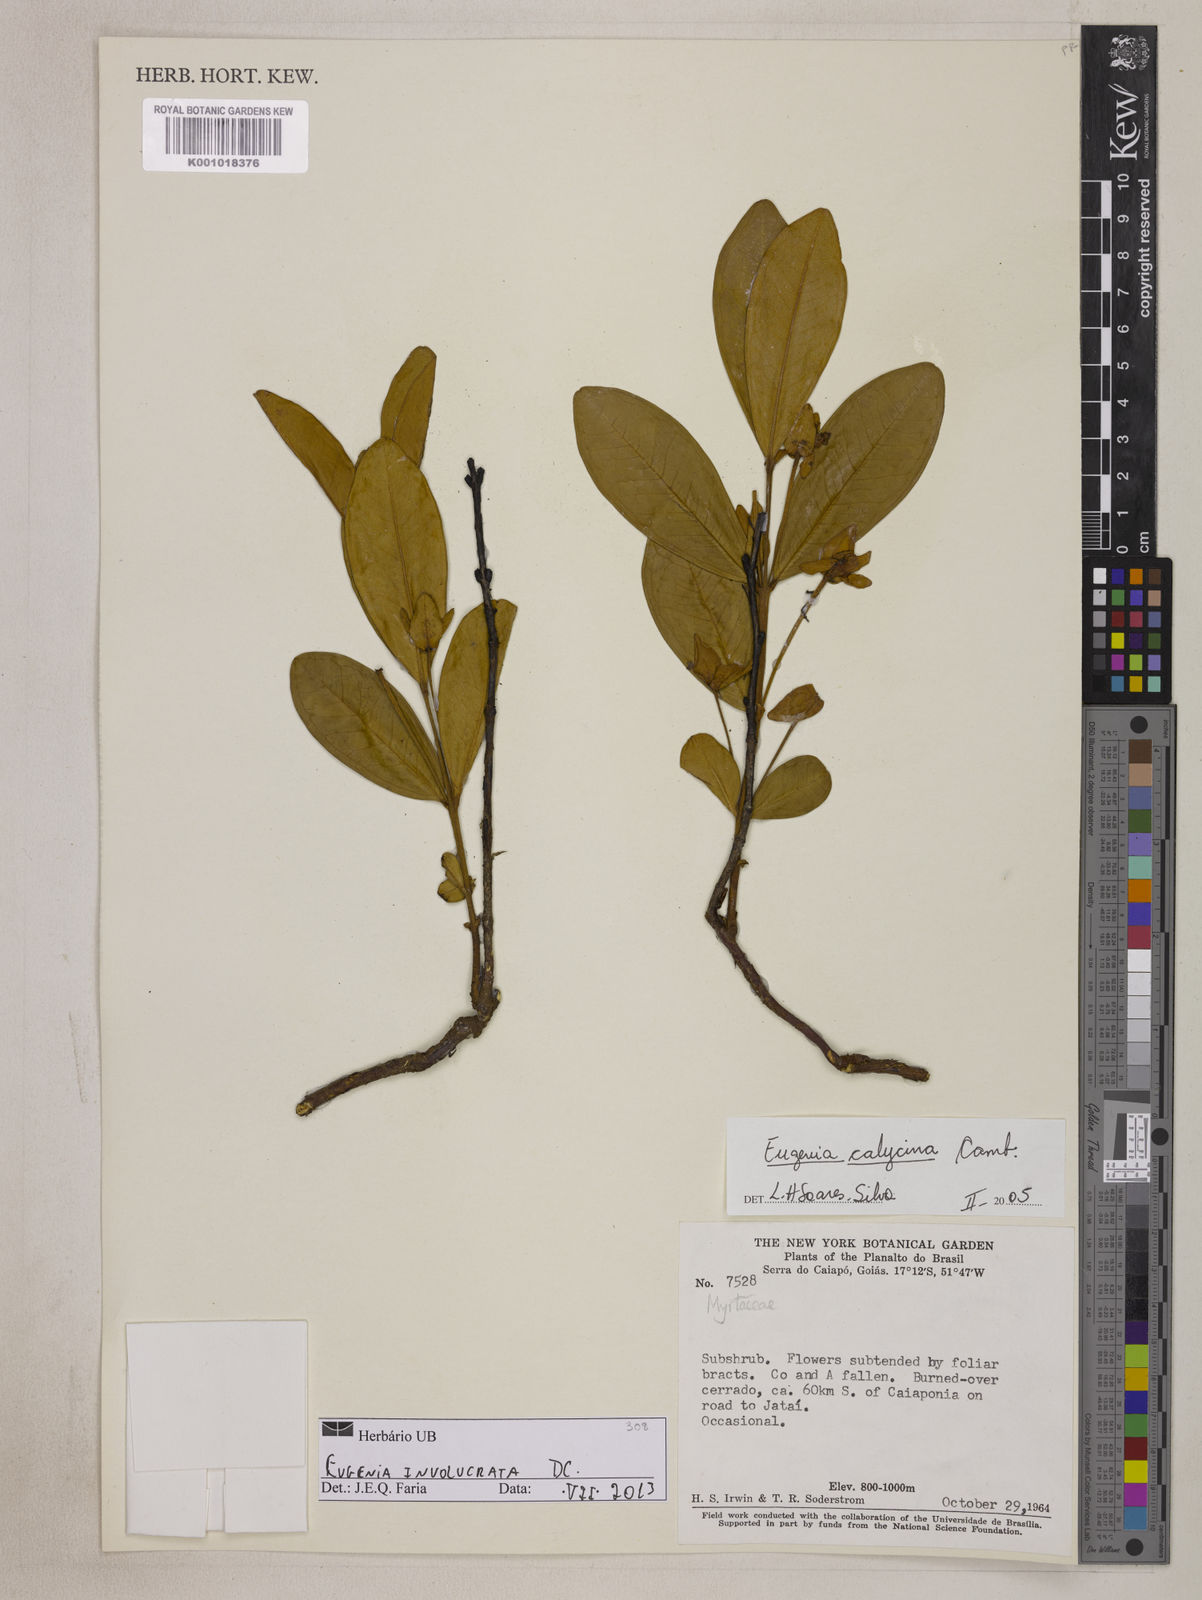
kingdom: Plantae
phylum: Tracheophyta
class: Magnoliopsida
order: Myrtales
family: Myrtaceae
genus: Eugenia
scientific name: Eugenia involucrata
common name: Cherry-of-the-rio grande
